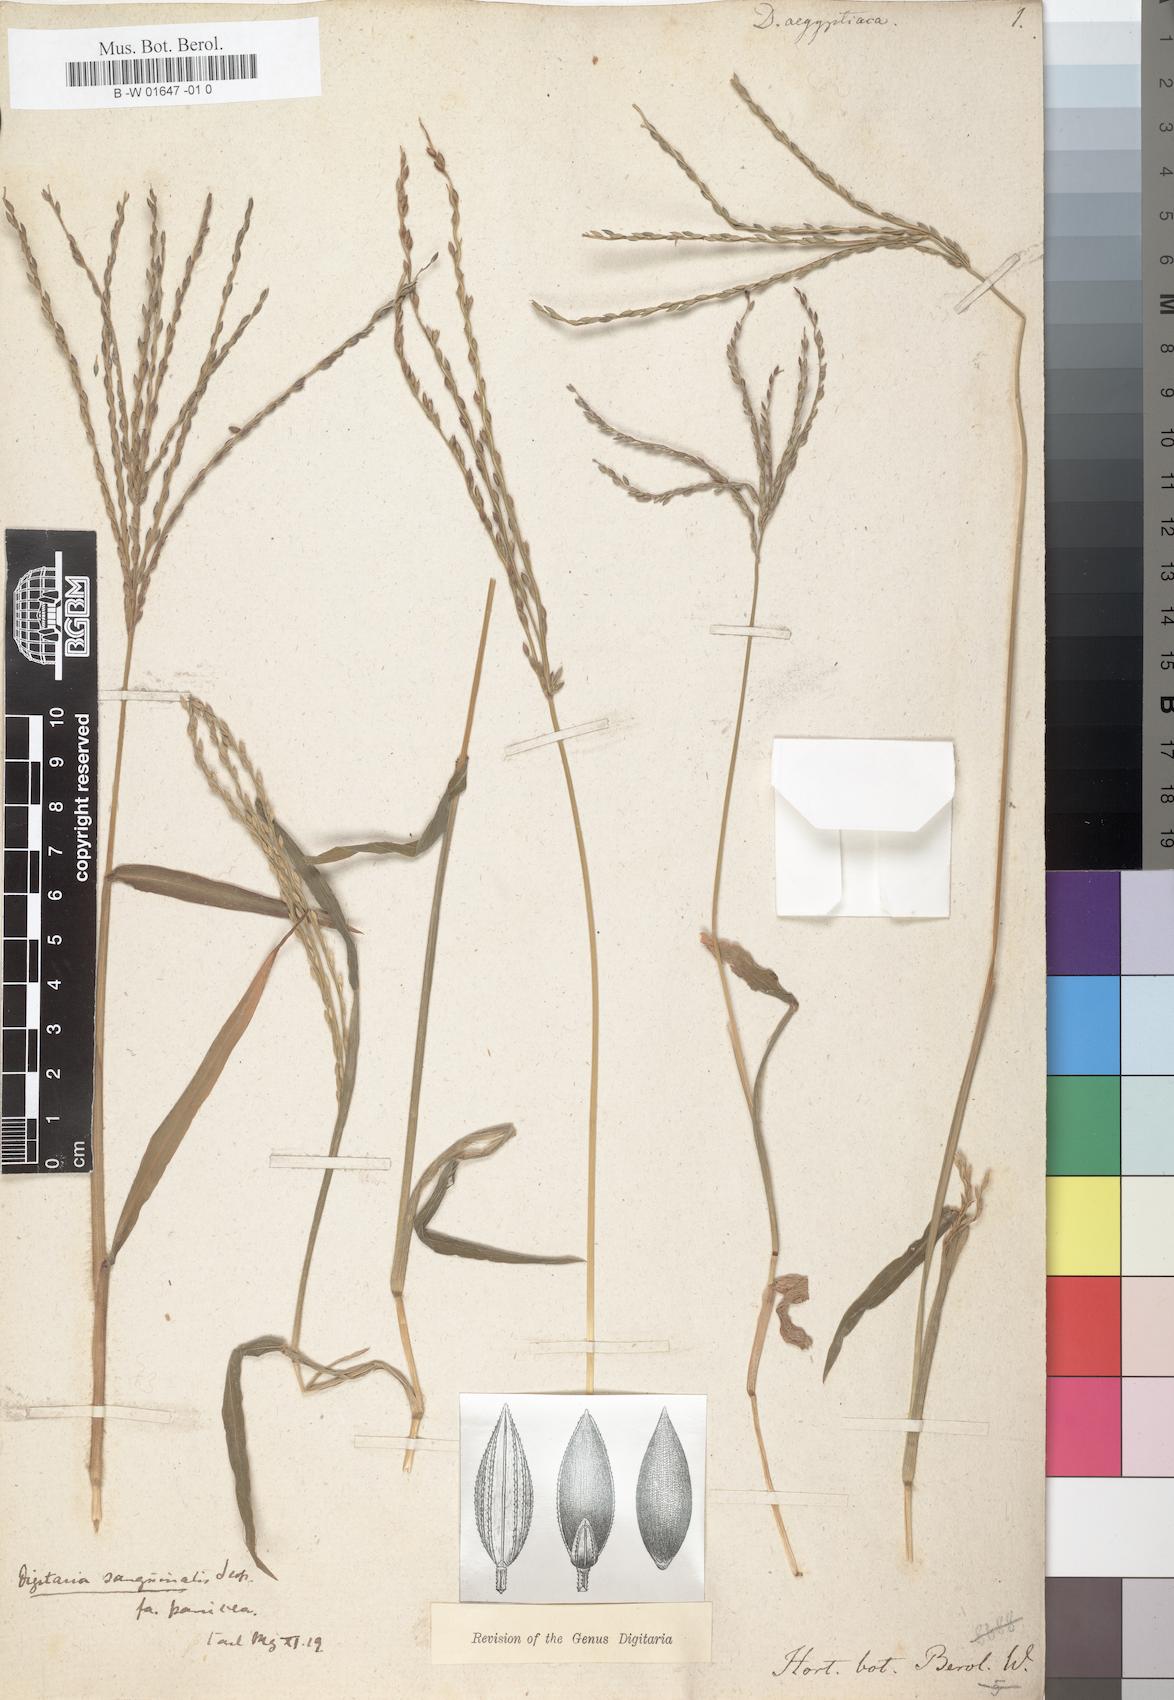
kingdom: Plantae
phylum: Tracheophyta
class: Liliopsida
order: Poales
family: Poaceae
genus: Digitaria
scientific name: Digitaria sanguinalis
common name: Hairy crabgrass
